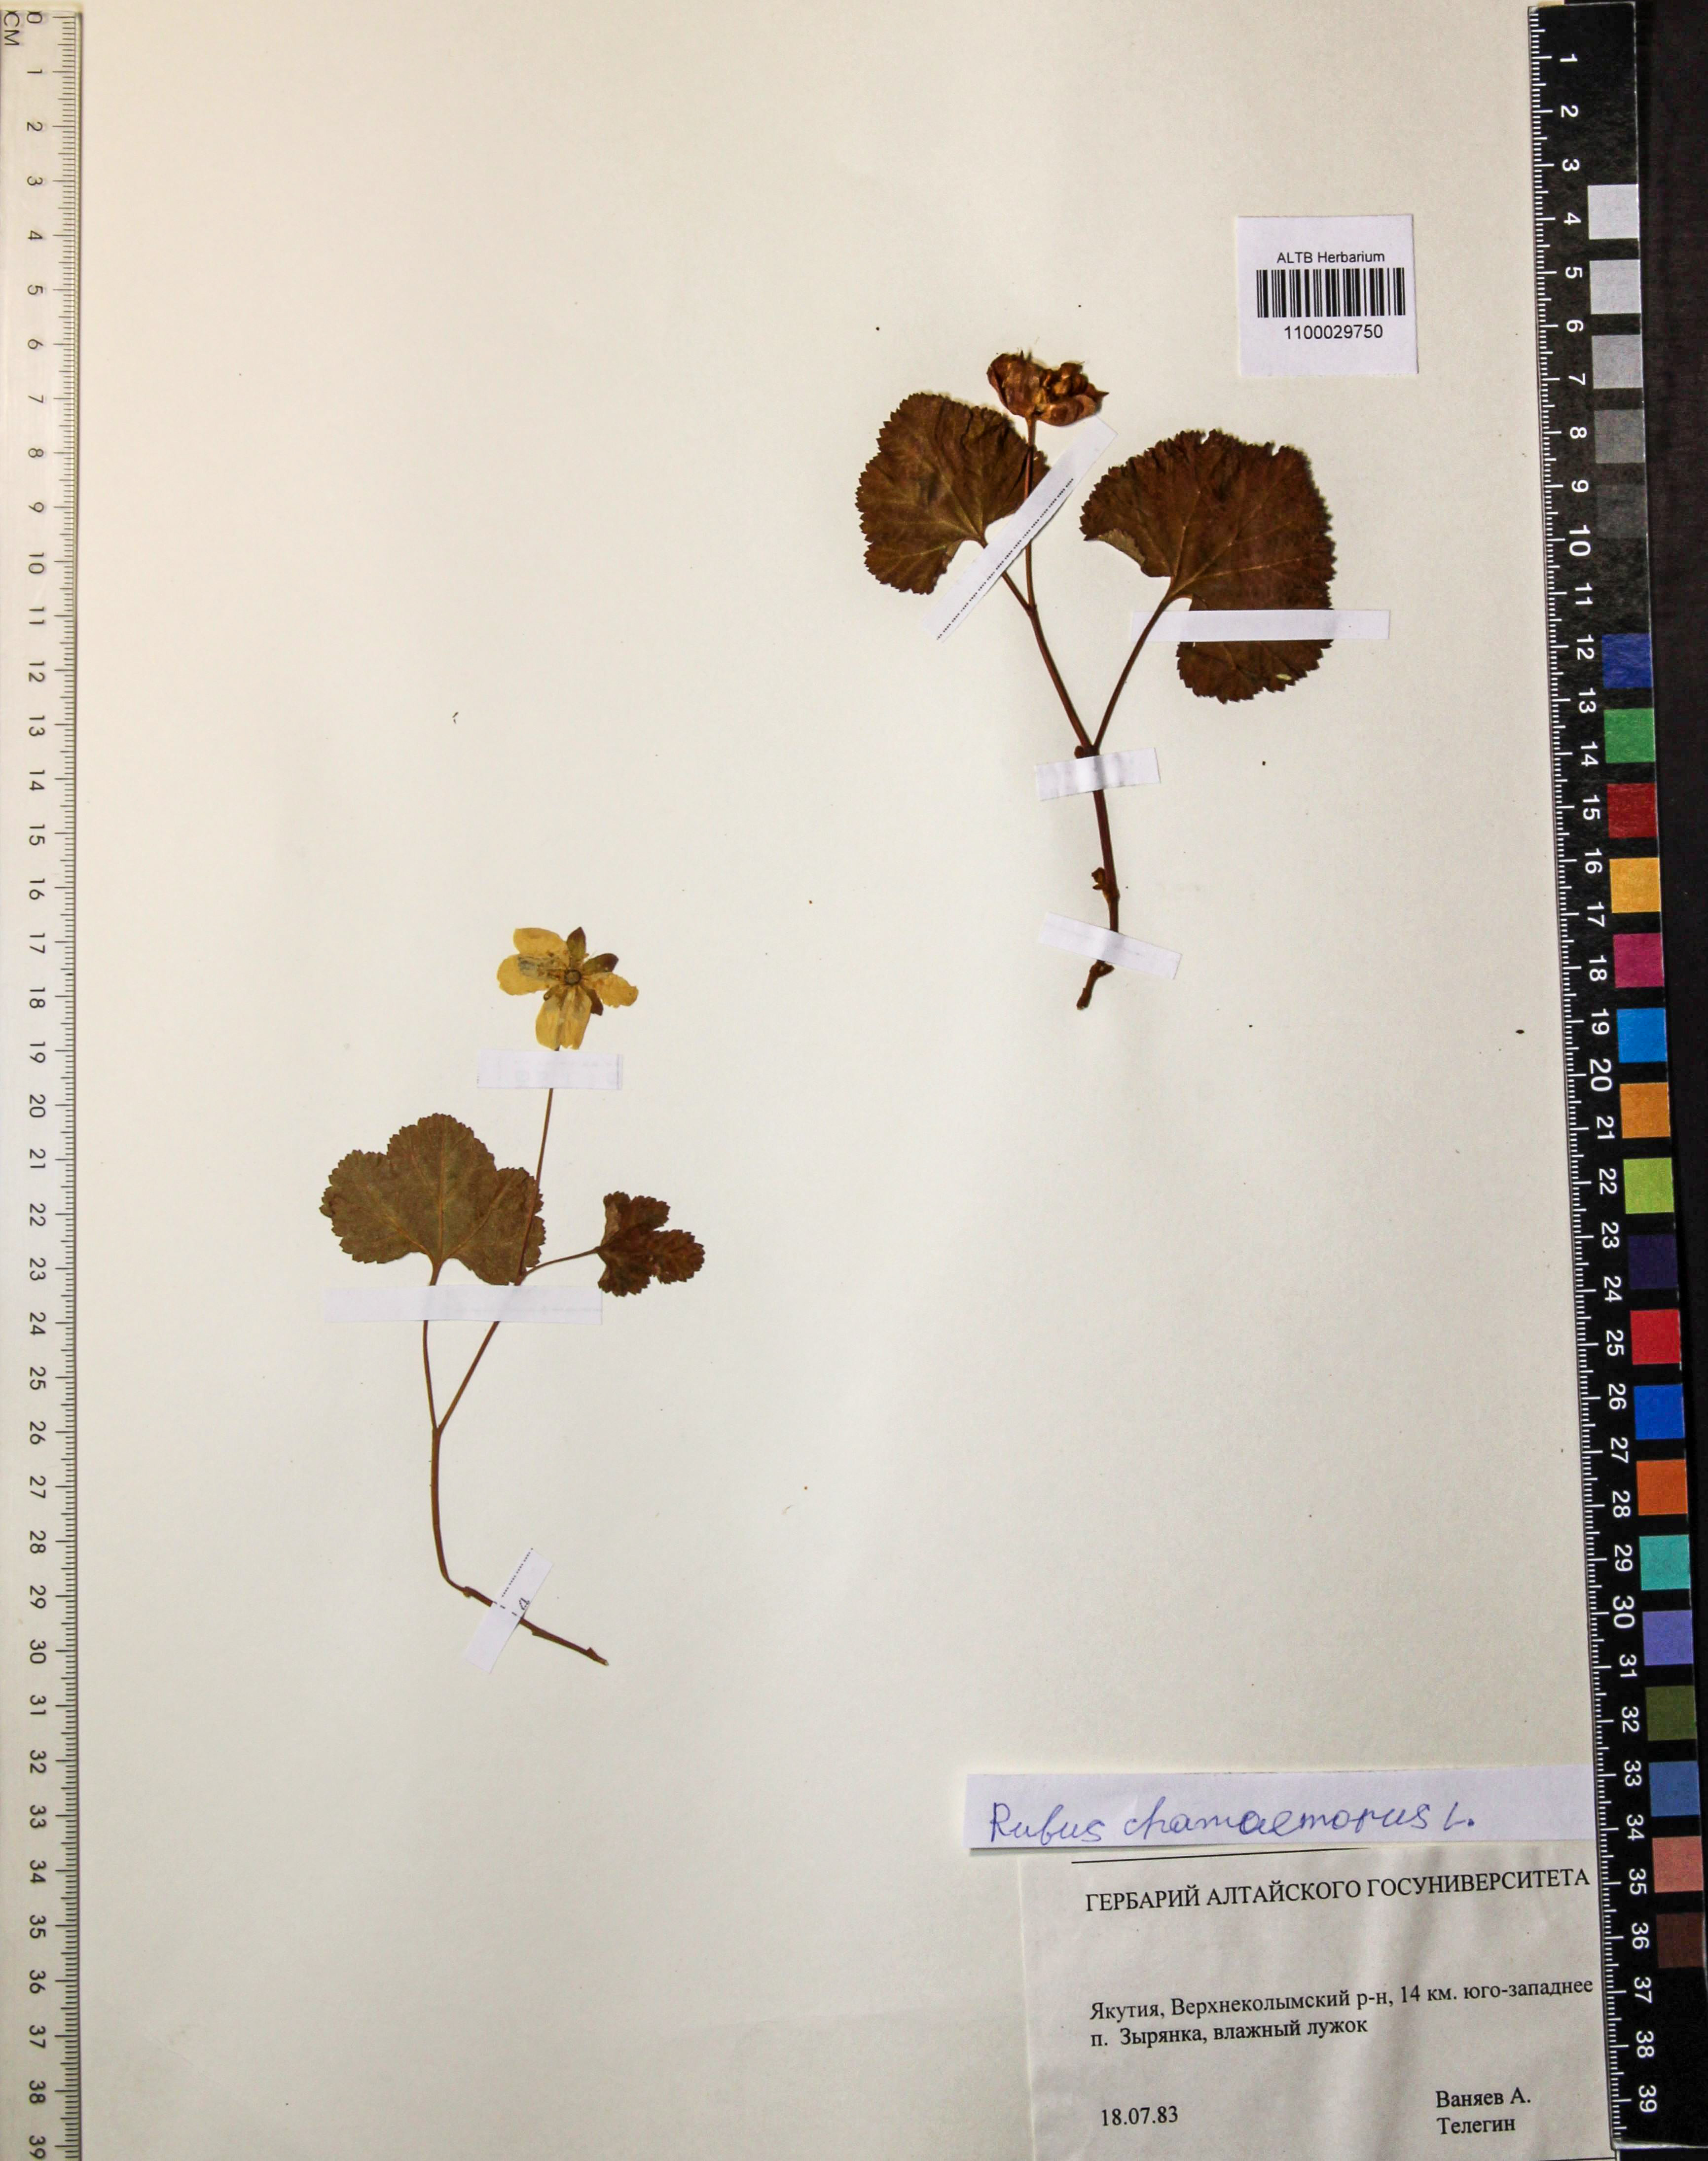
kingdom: Plantae
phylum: Tracheophyta
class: Magnoliopsida
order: Rosales
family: Rosaceae
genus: Rubus
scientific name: Rubus chamaemorus
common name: Cloudberry
